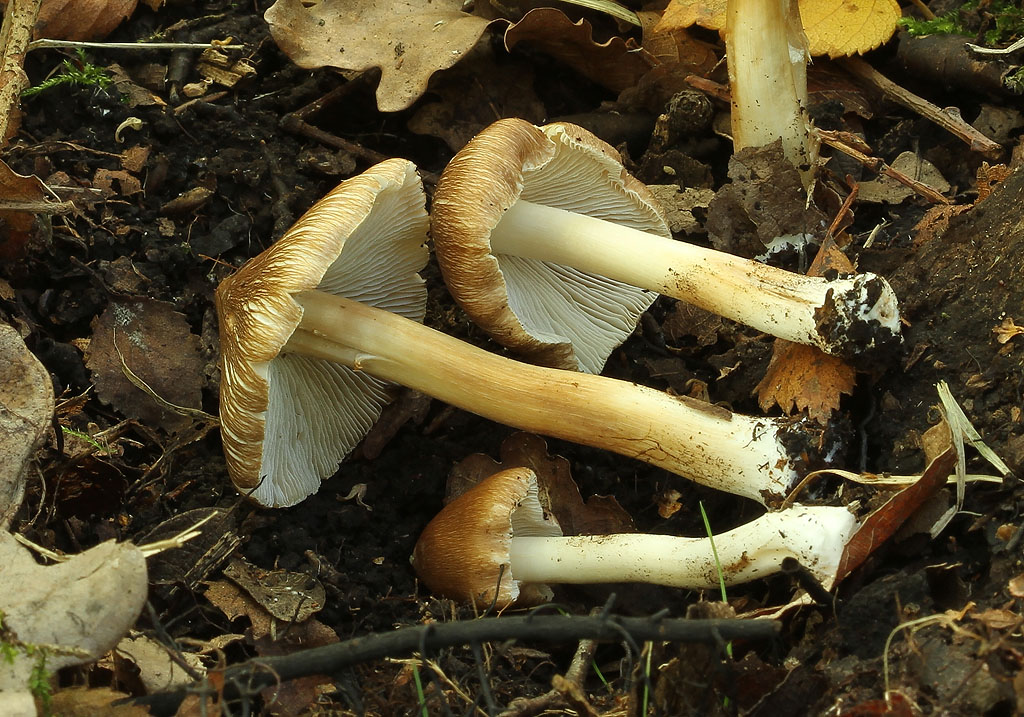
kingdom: Fungi
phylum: Basidiomycota
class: Agaricomycetes
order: Agaricales
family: Inocybaceae
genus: Inosperma
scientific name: Inosperma
